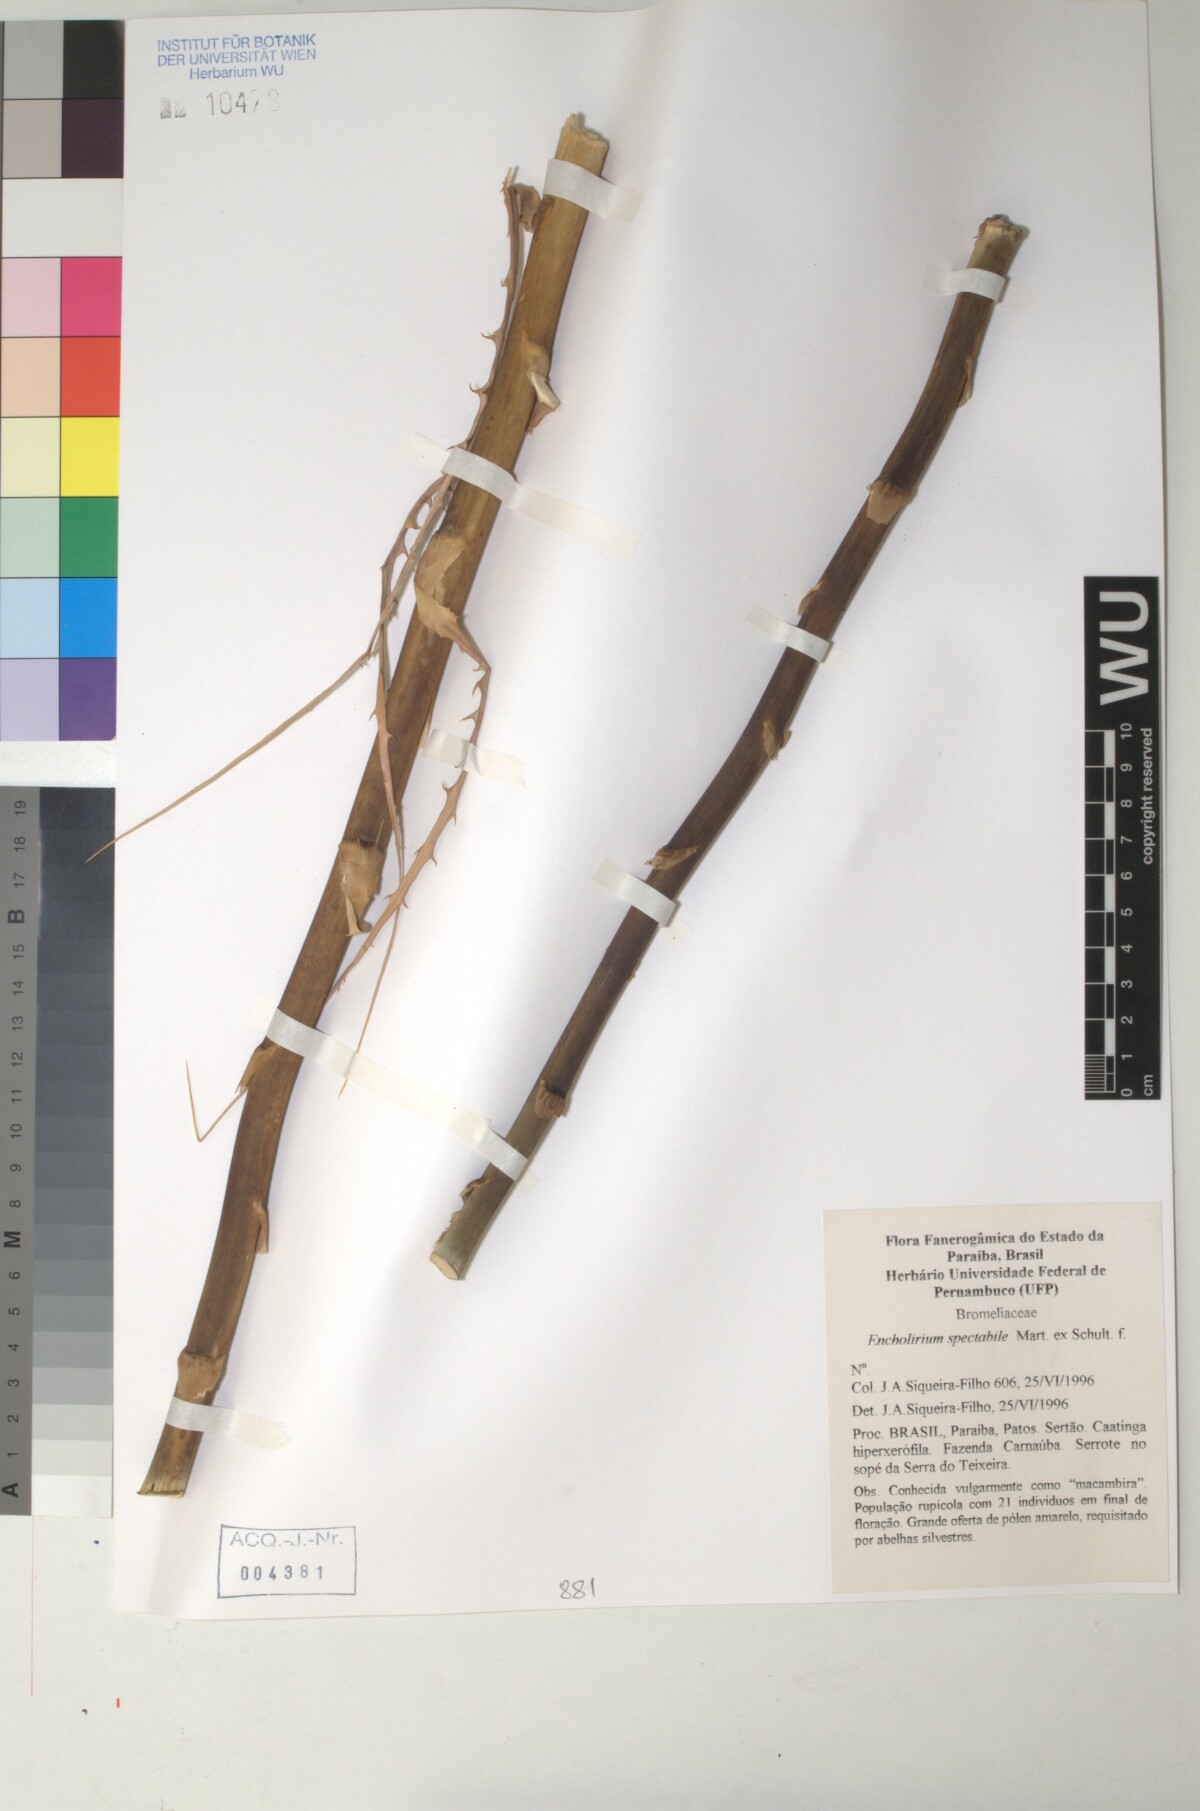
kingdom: Plantae
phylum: Tracheophyta
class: Liliopsida
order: Poales
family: Bromeliaceae
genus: Encholirium
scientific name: Encholirium
